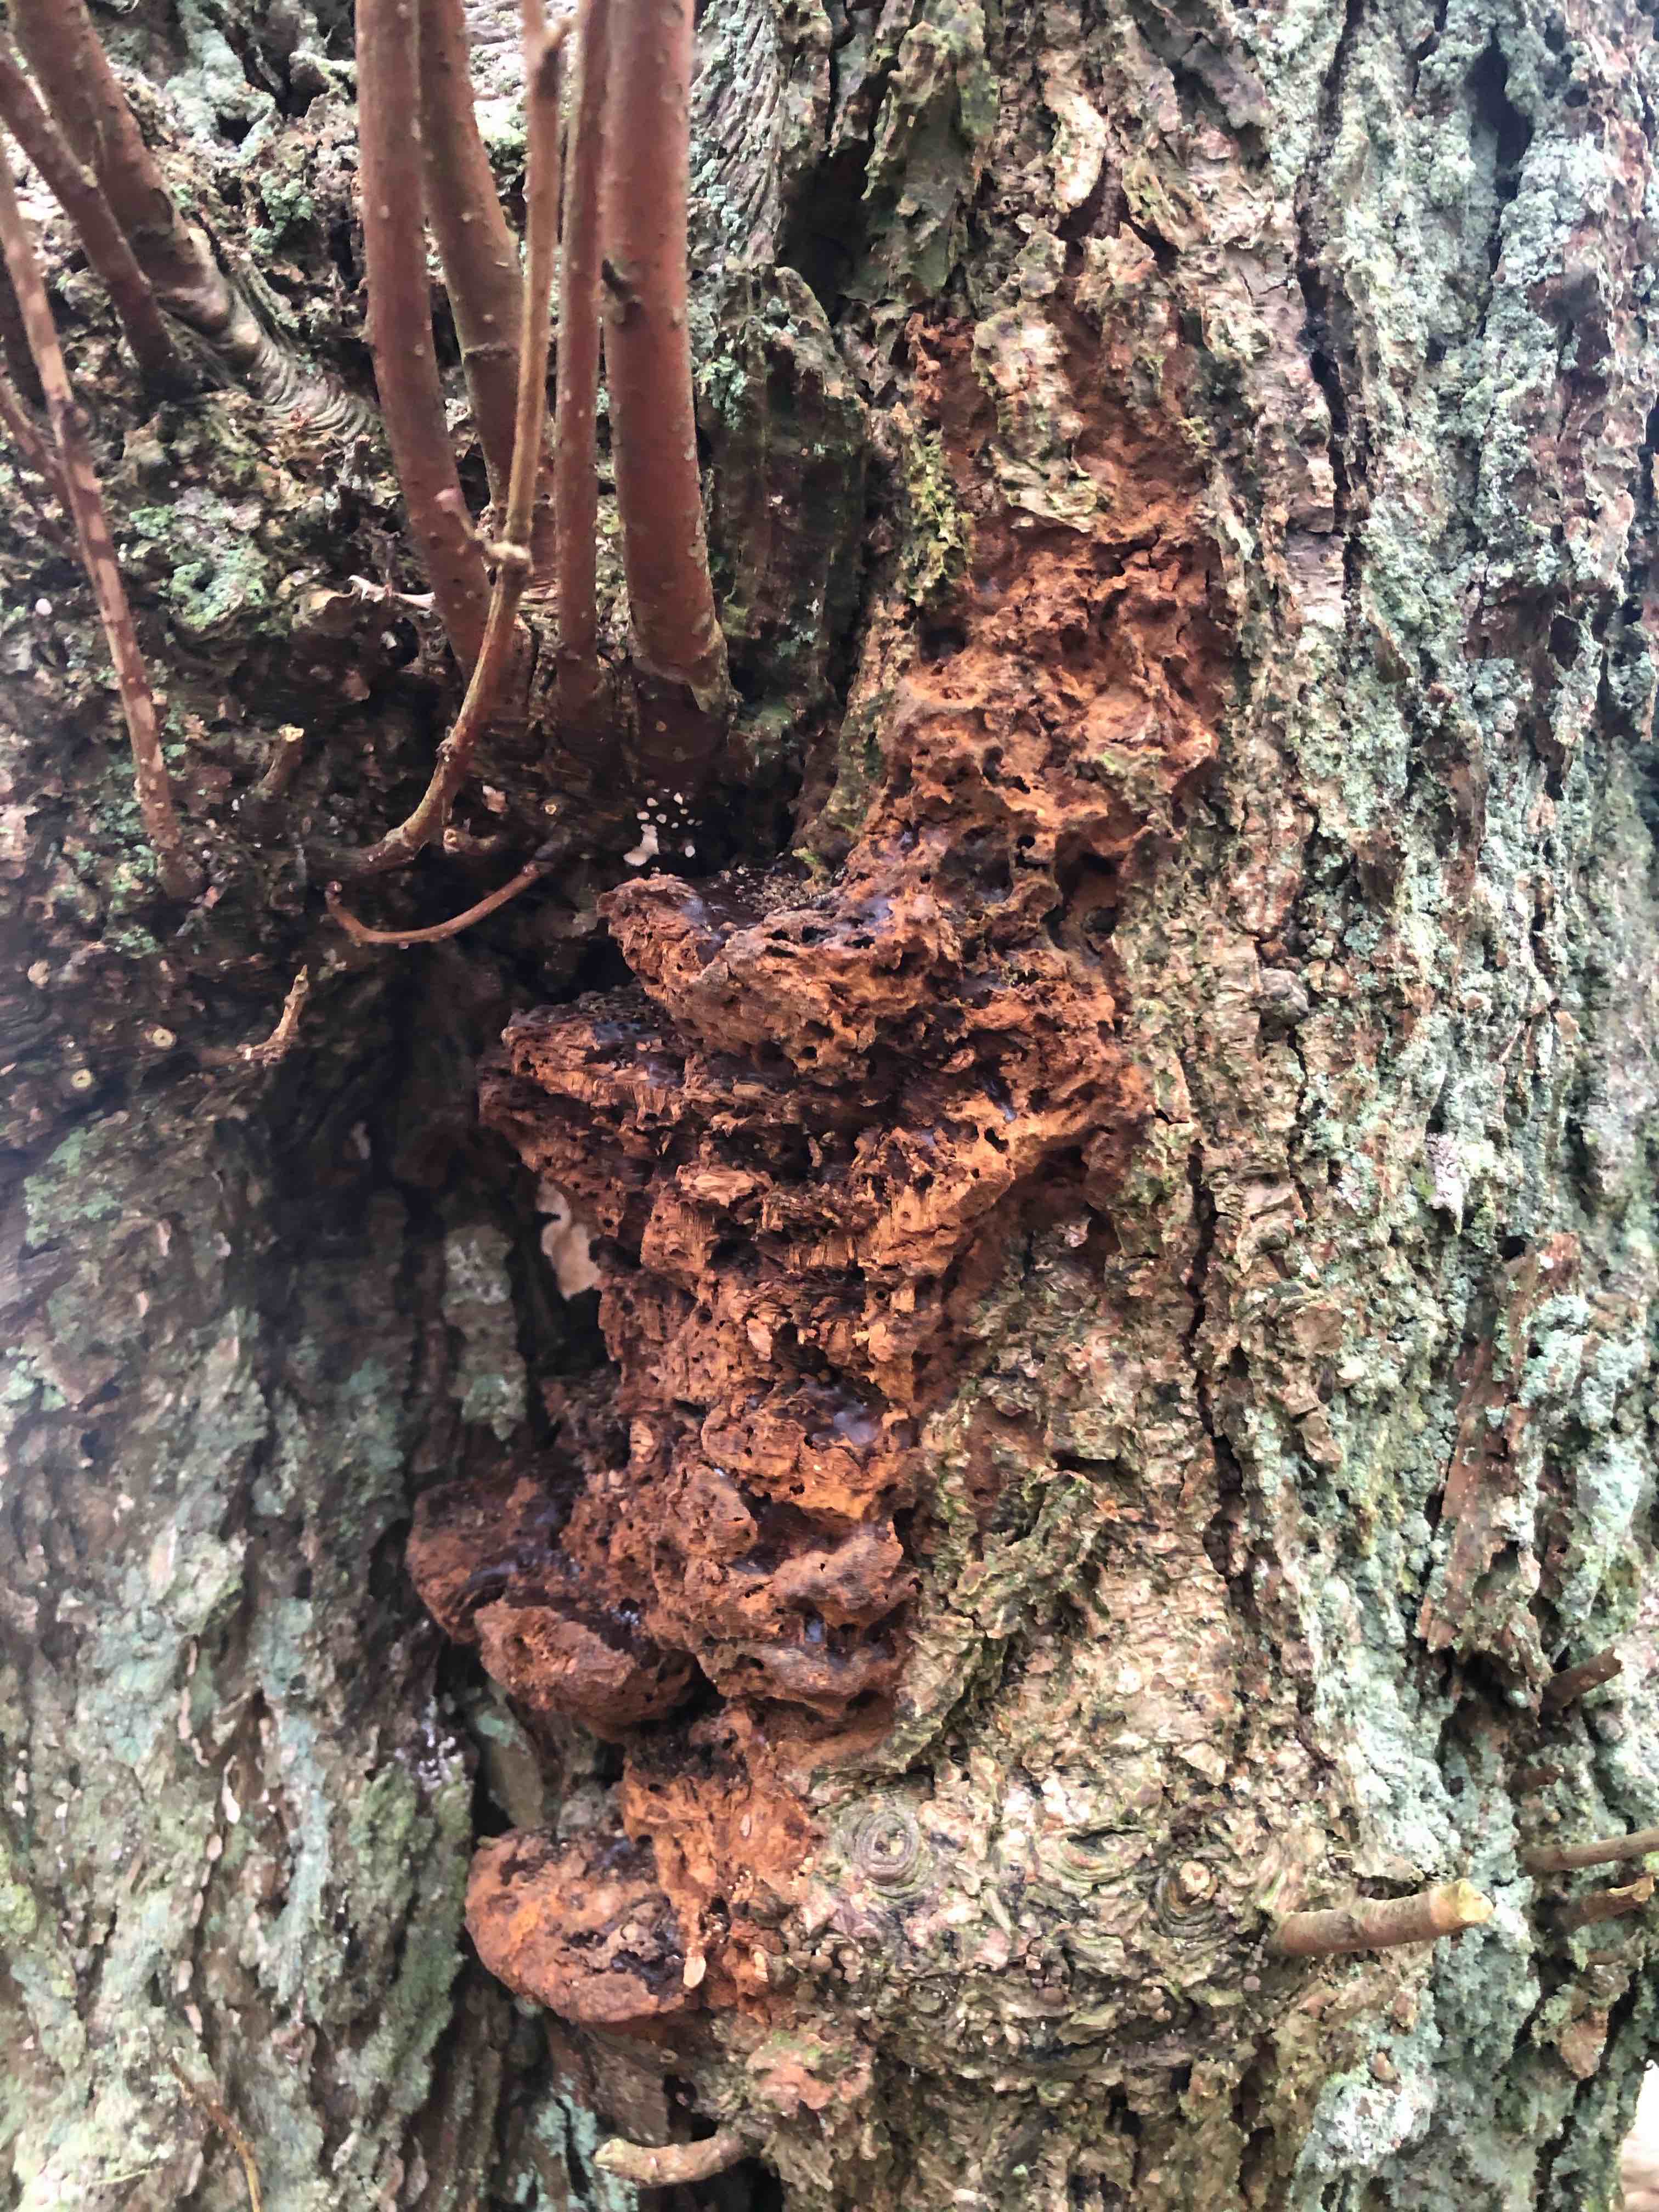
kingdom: Fungi
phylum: Basidiomycota
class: Agaricomycetes
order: Hymenochaetales
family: Hymenochaetaceae
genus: Inonotus
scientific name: Inonotus
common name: spejlporesvamp
